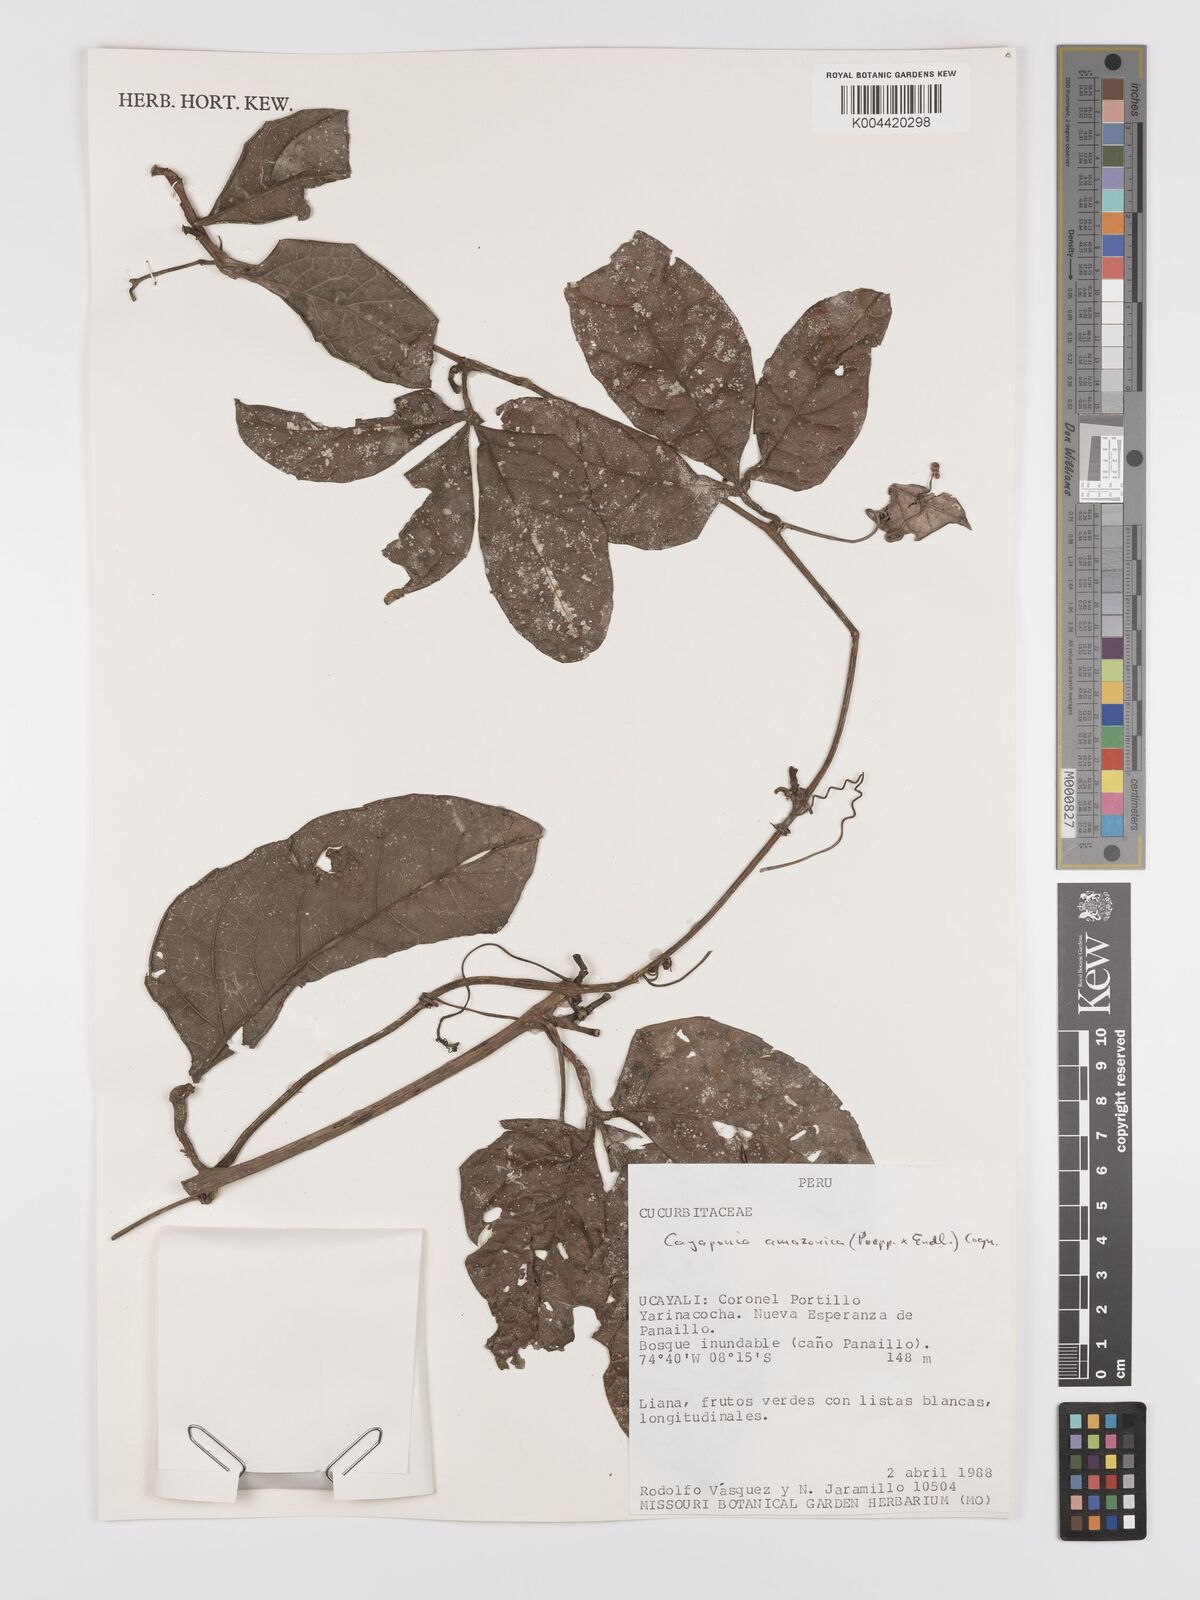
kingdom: Plantae
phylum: Tracheophyta
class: Magnoliopsida
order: Cucurbitales
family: Cucurbitaceae
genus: Cayaponia
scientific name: Cayaponia amazonica
